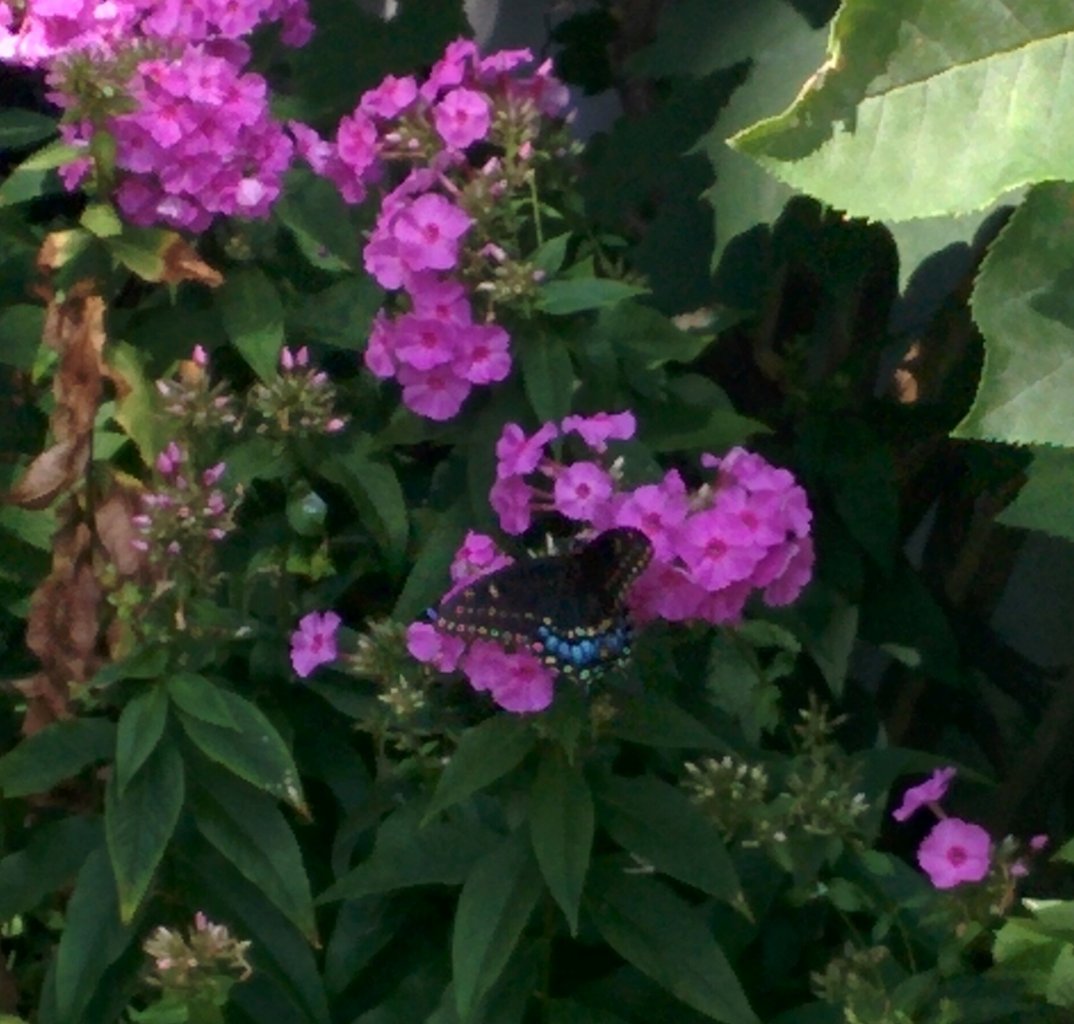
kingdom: Animalia
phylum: Arthropoda
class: Insecta
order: Lepidoptera
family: Papilionidae
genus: Papilio
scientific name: Papilio polyxenes
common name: Black Swallowtail
